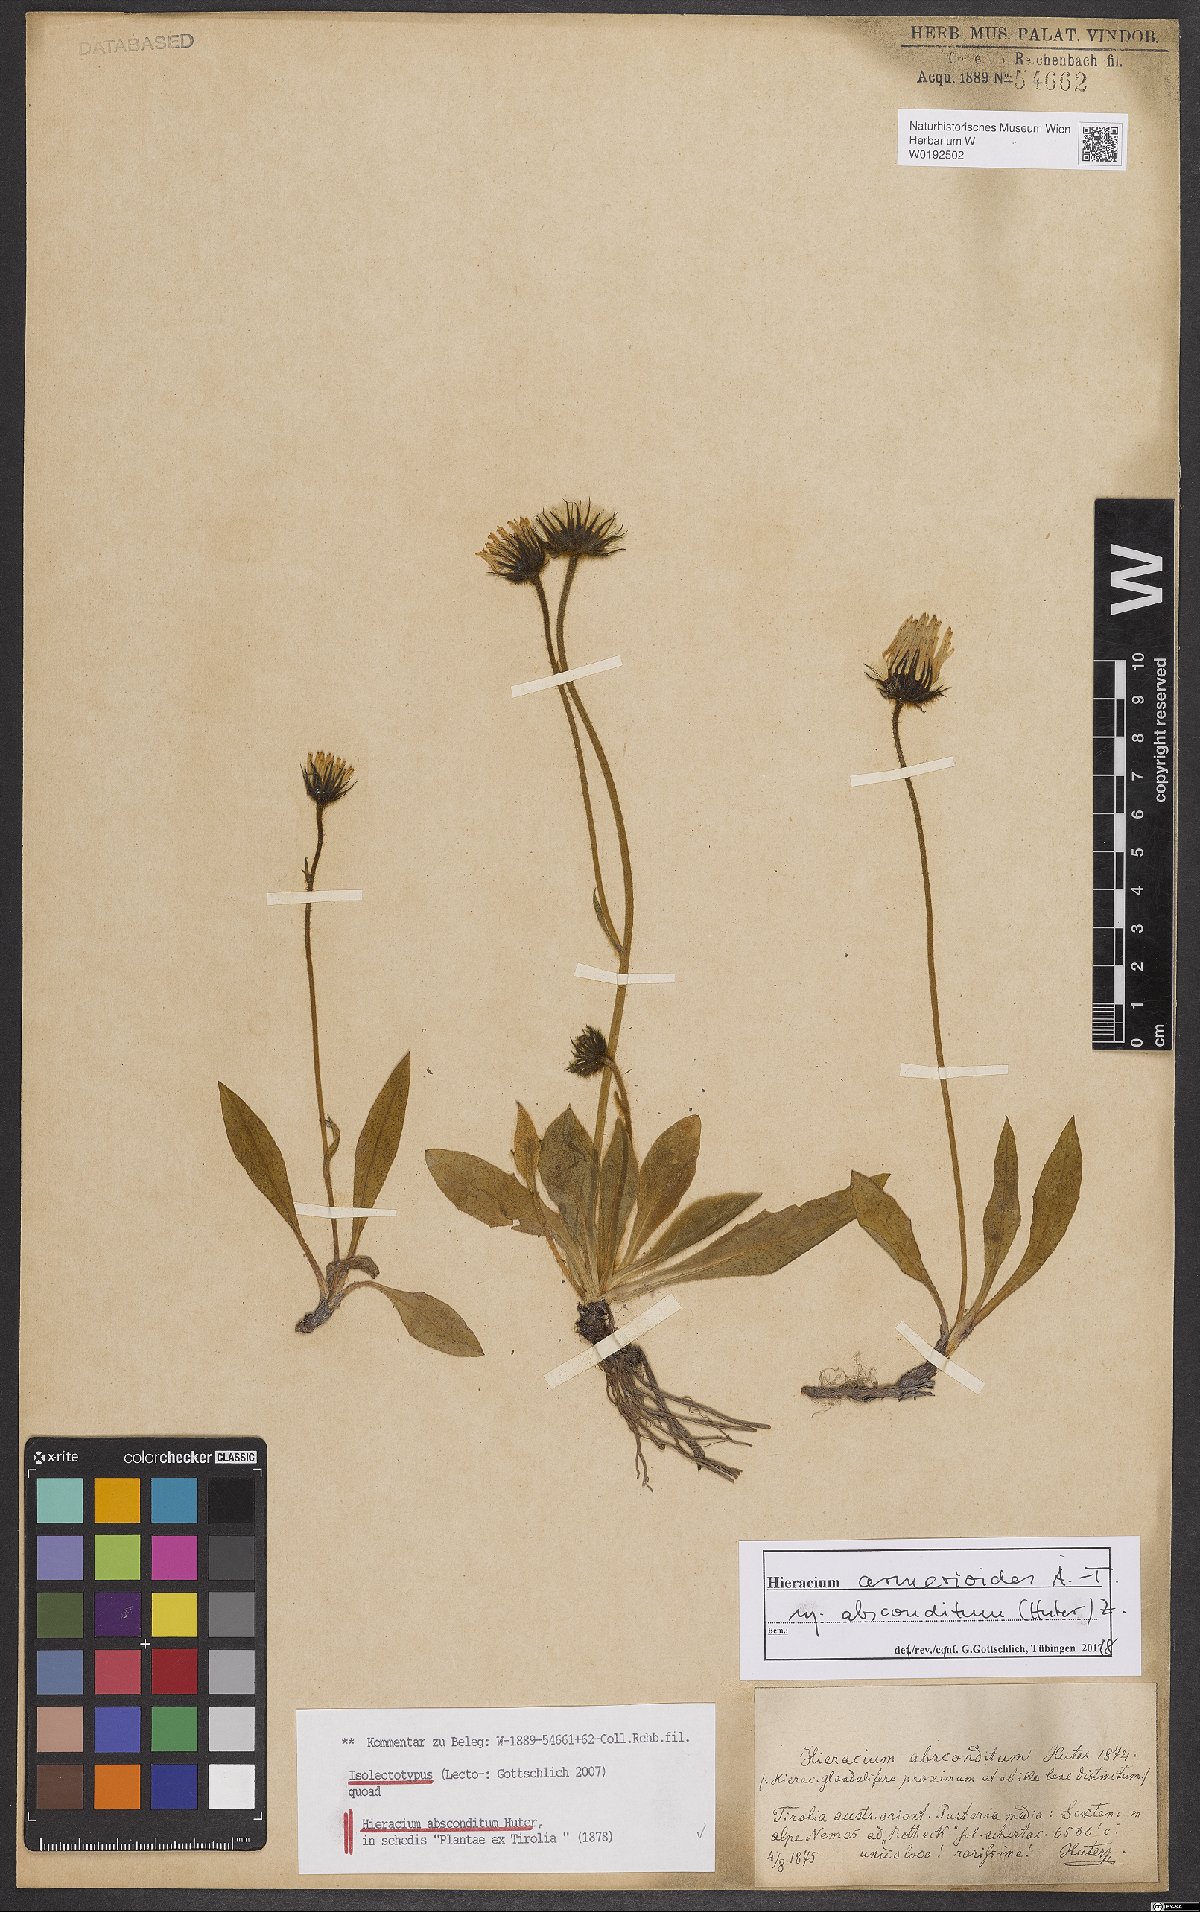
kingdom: Plantae
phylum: Tracheophyta
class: Magnoliopsida
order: Asterales
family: Asteraceae
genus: Hieracium
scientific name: Hieracium armerioides
